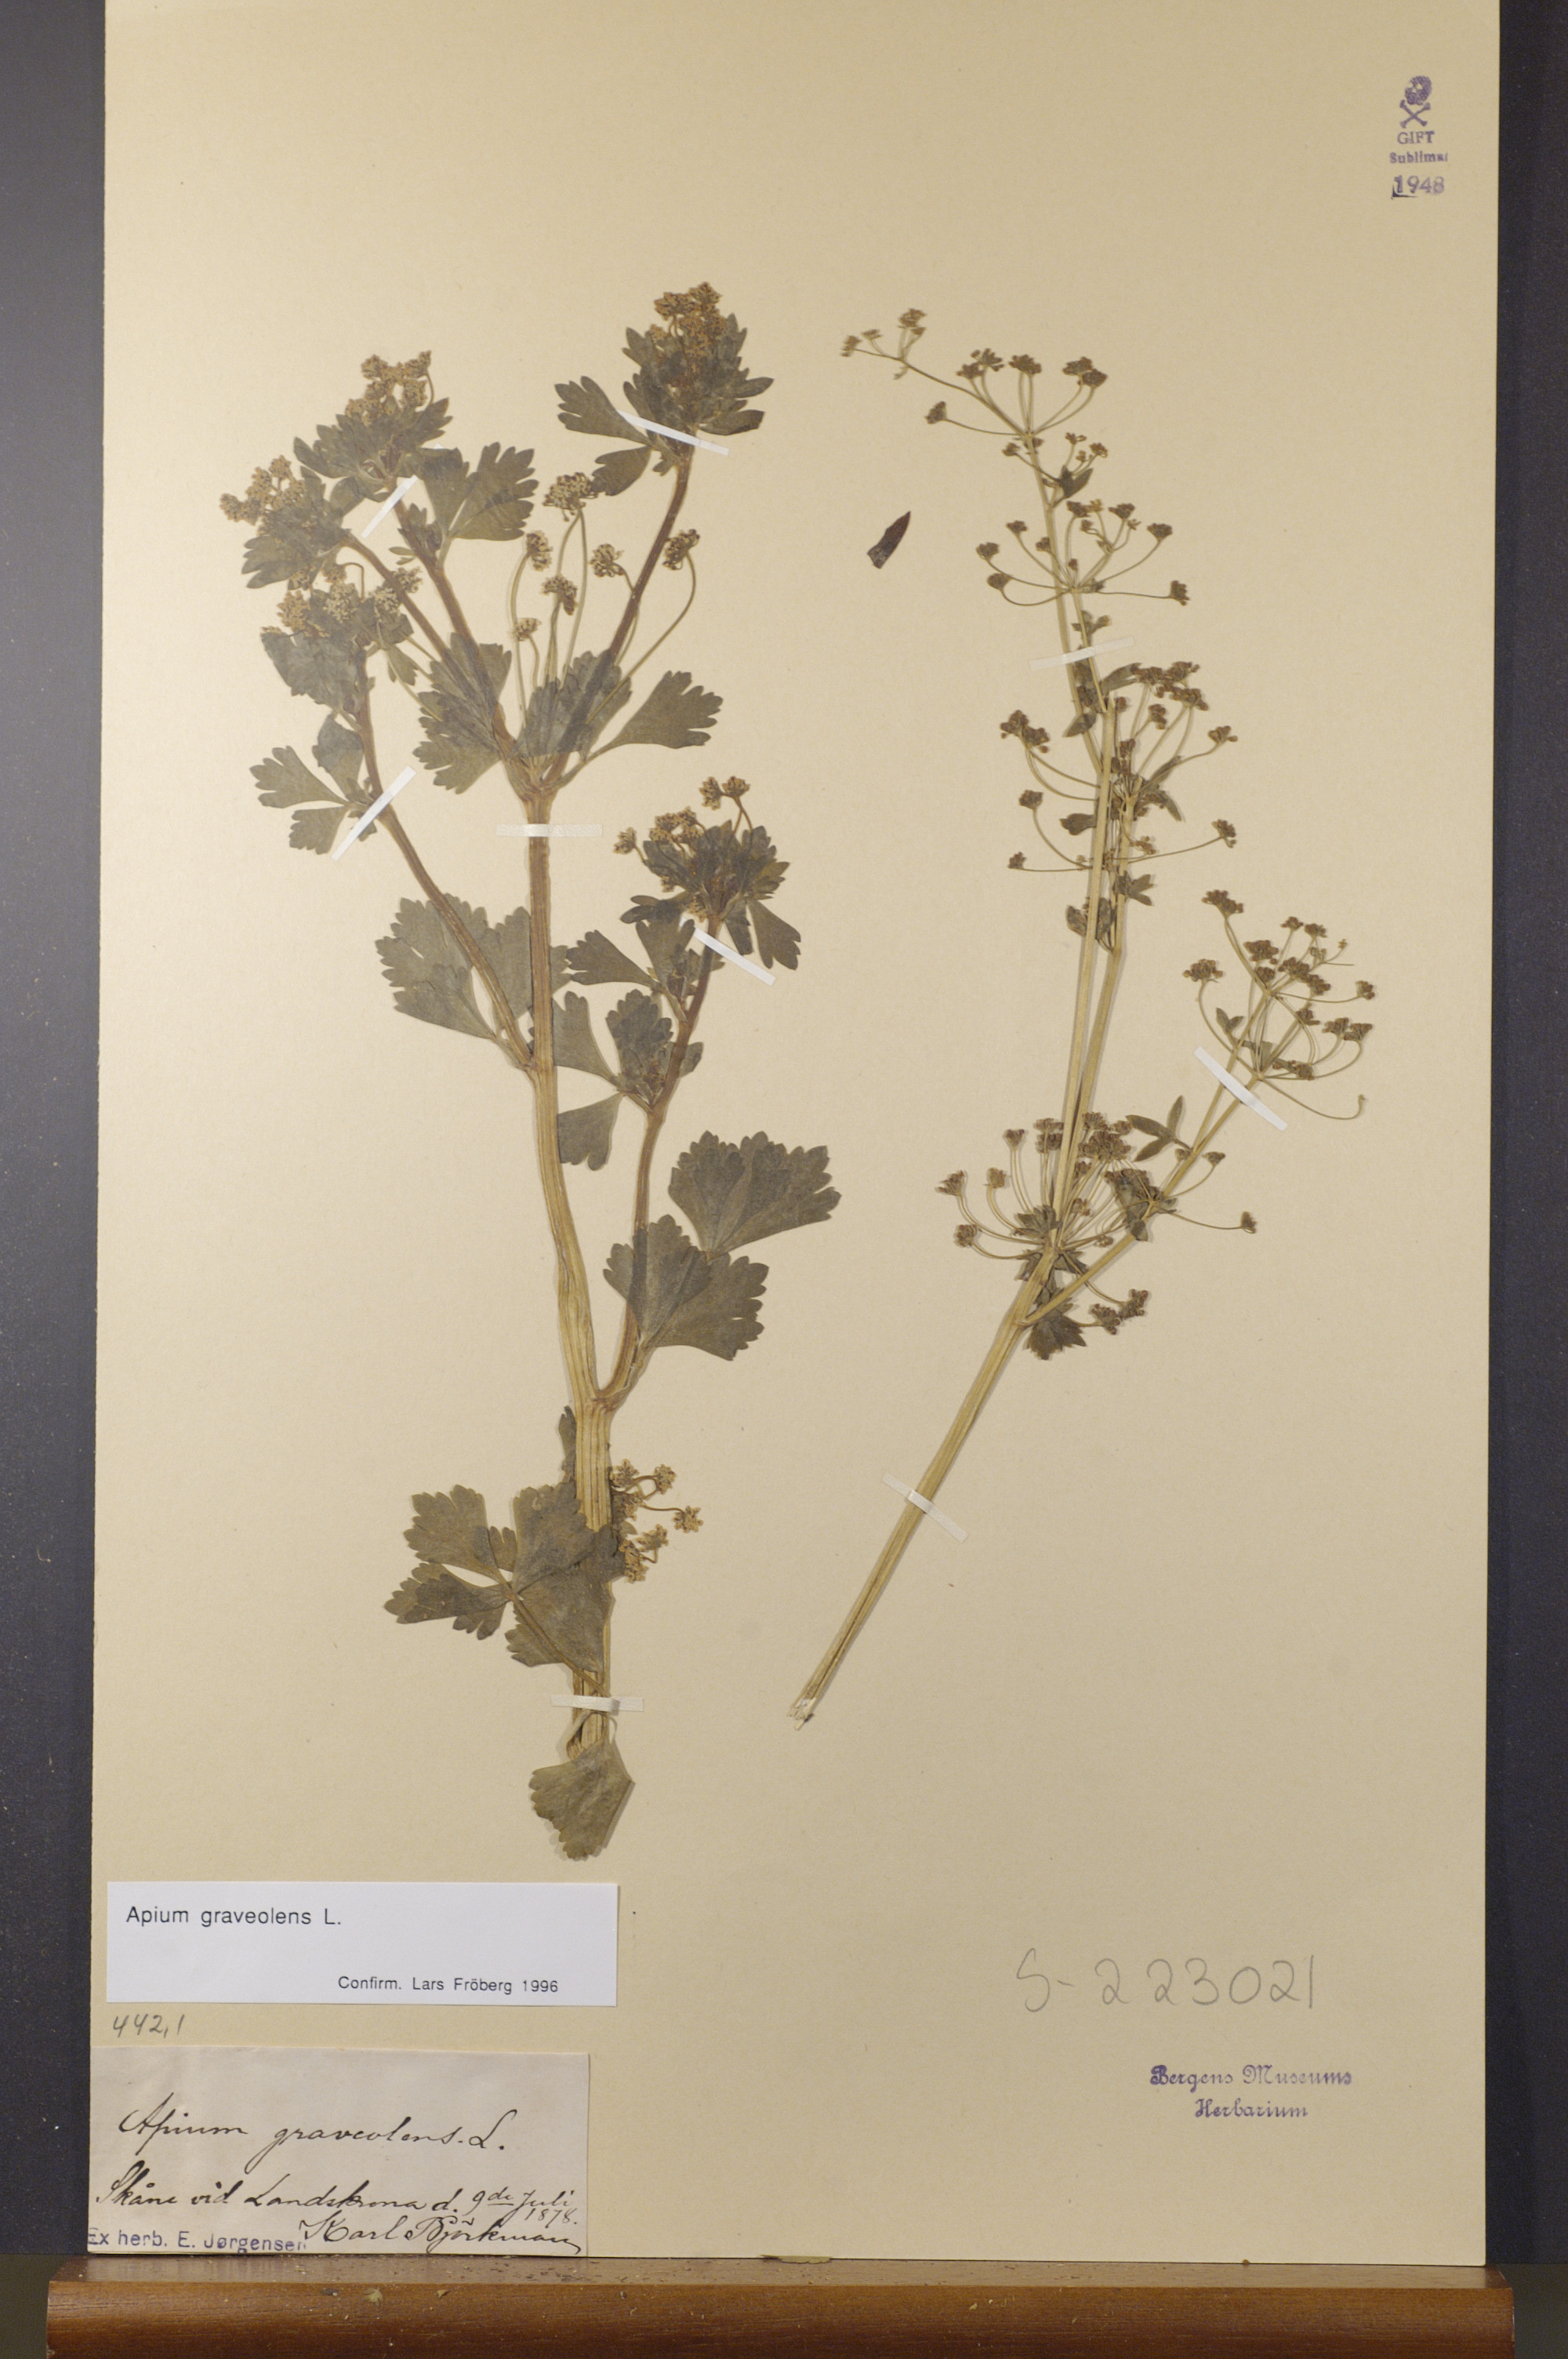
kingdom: Plantae
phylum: Tracheophyta
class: Magnoliopsida
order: Apiales
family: Apiaceae
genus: Apium
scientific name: Apium graveolens
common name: Wild celery
